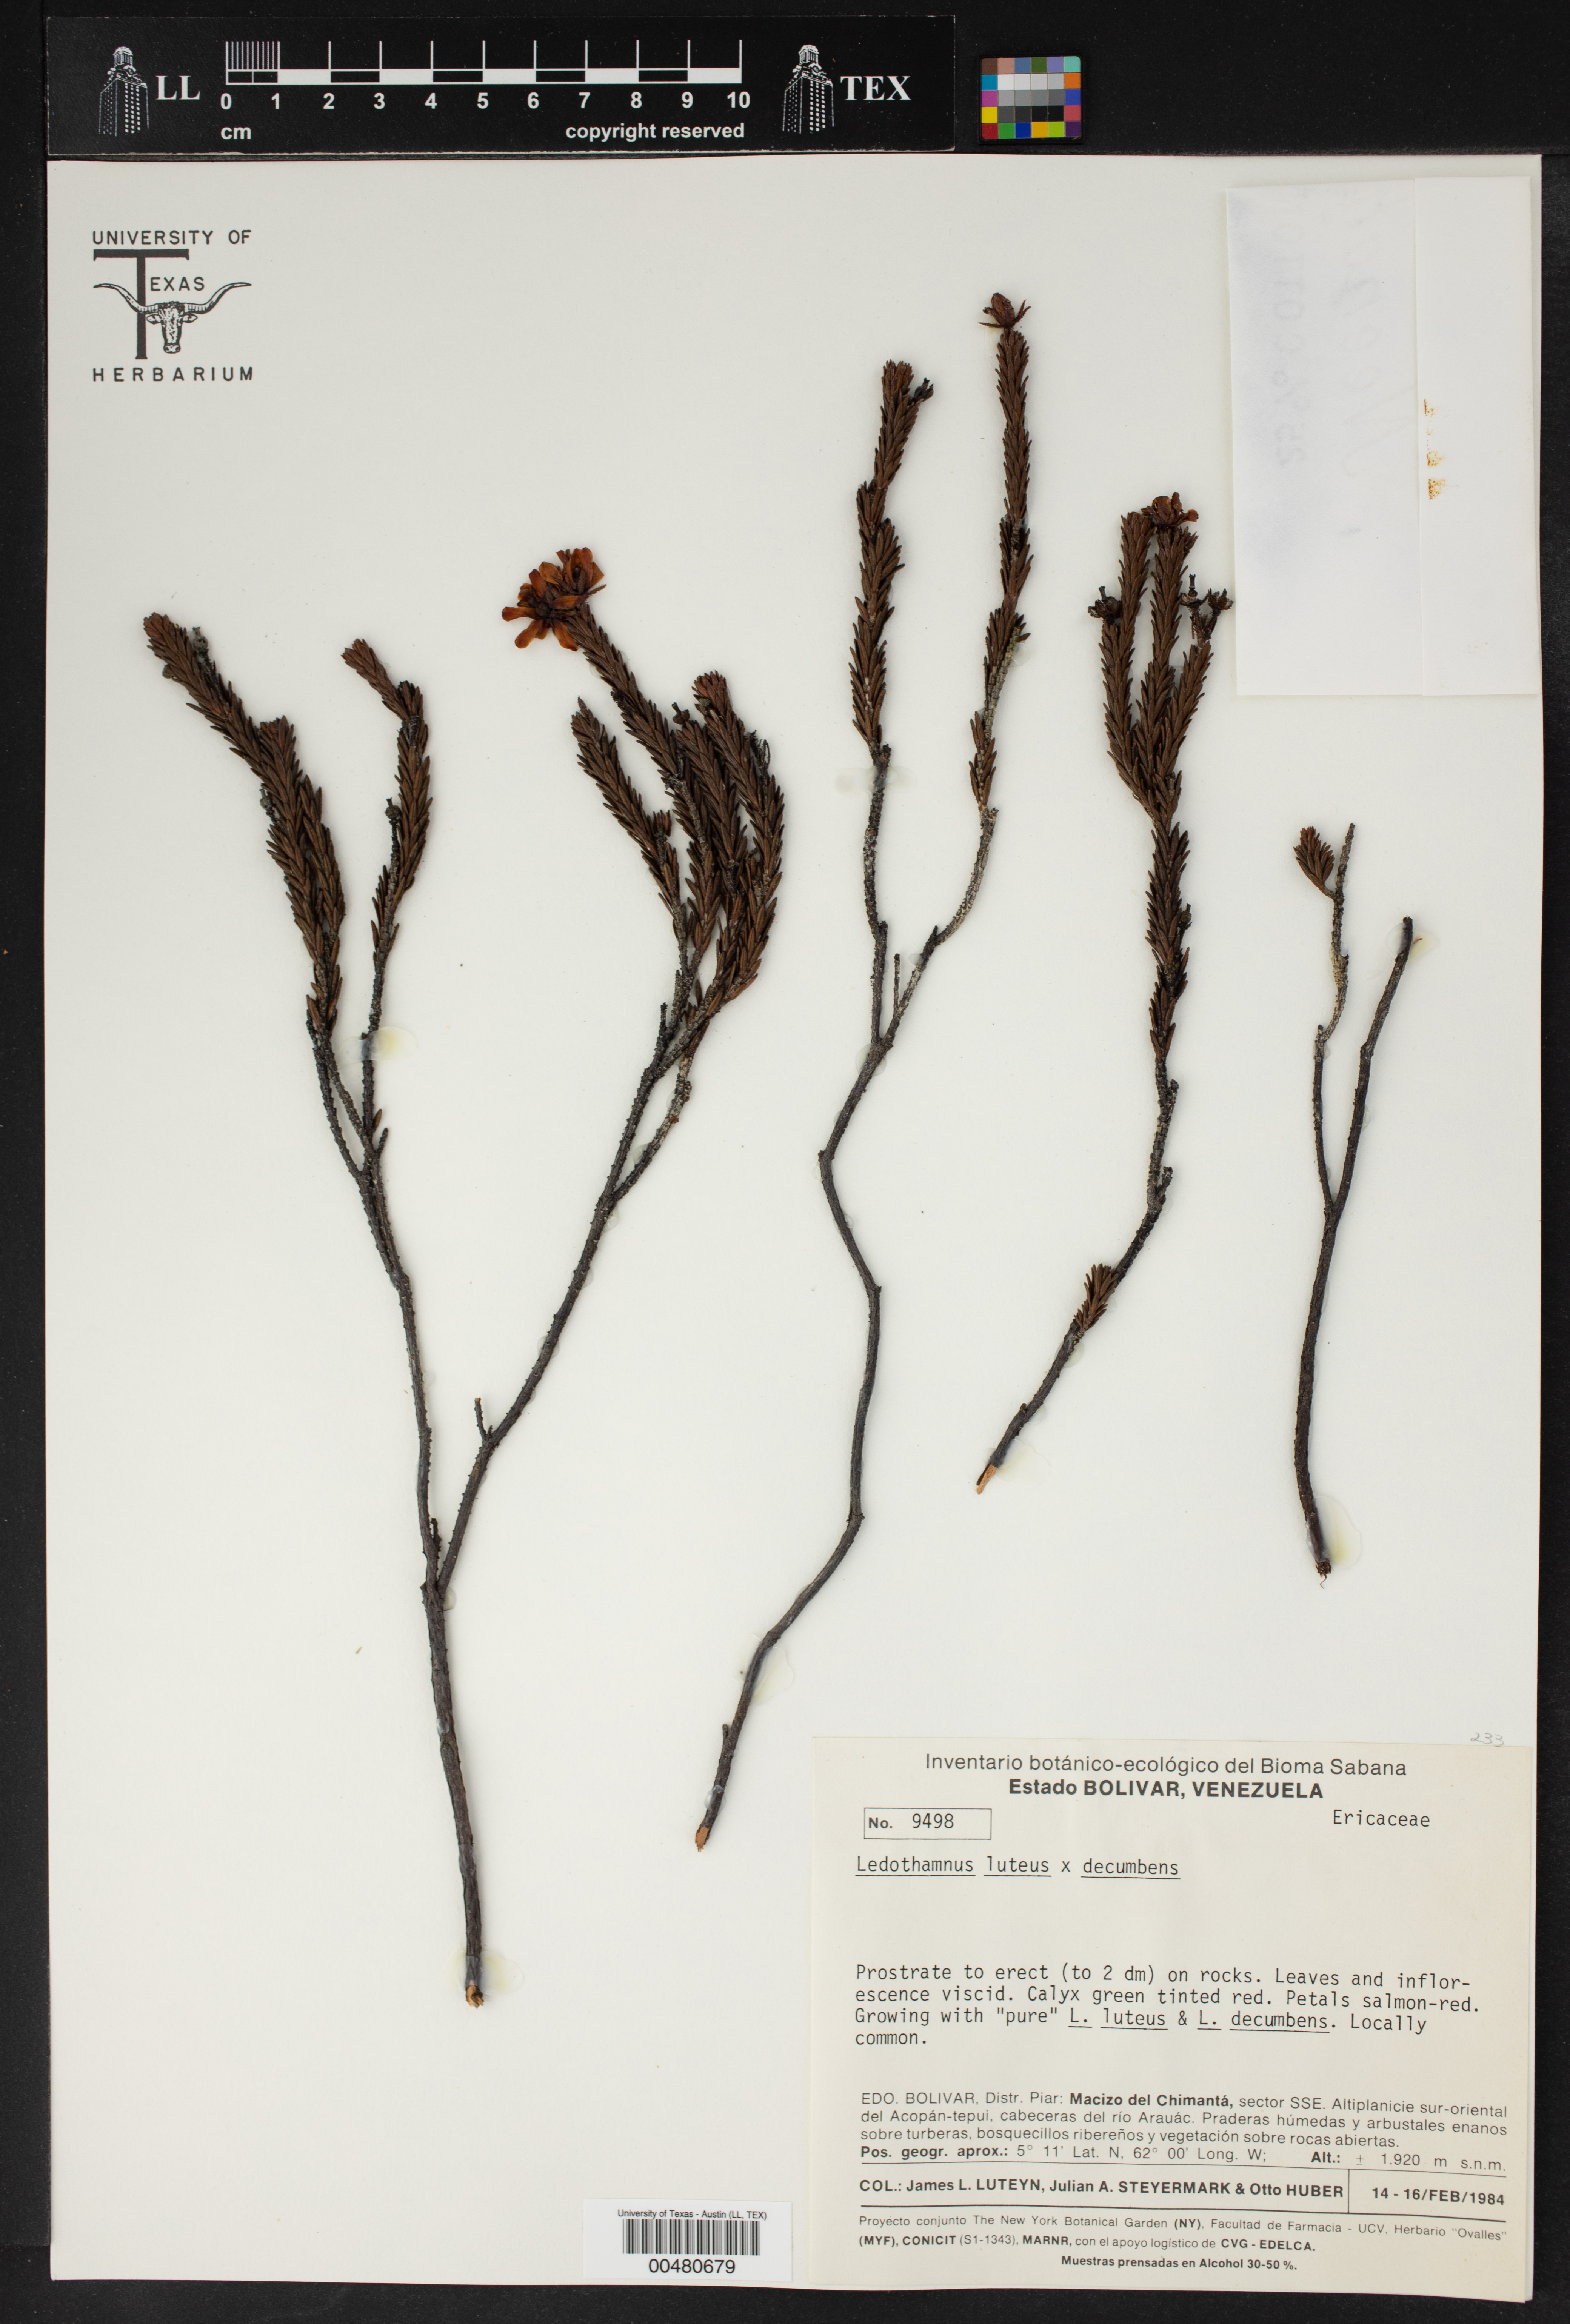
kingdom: Plantae
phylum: Tracheophyta
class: Magnoliopsida
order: Ericales
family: Ericaceae
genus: Ledothamnus
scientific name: Ledothamnus luteus
